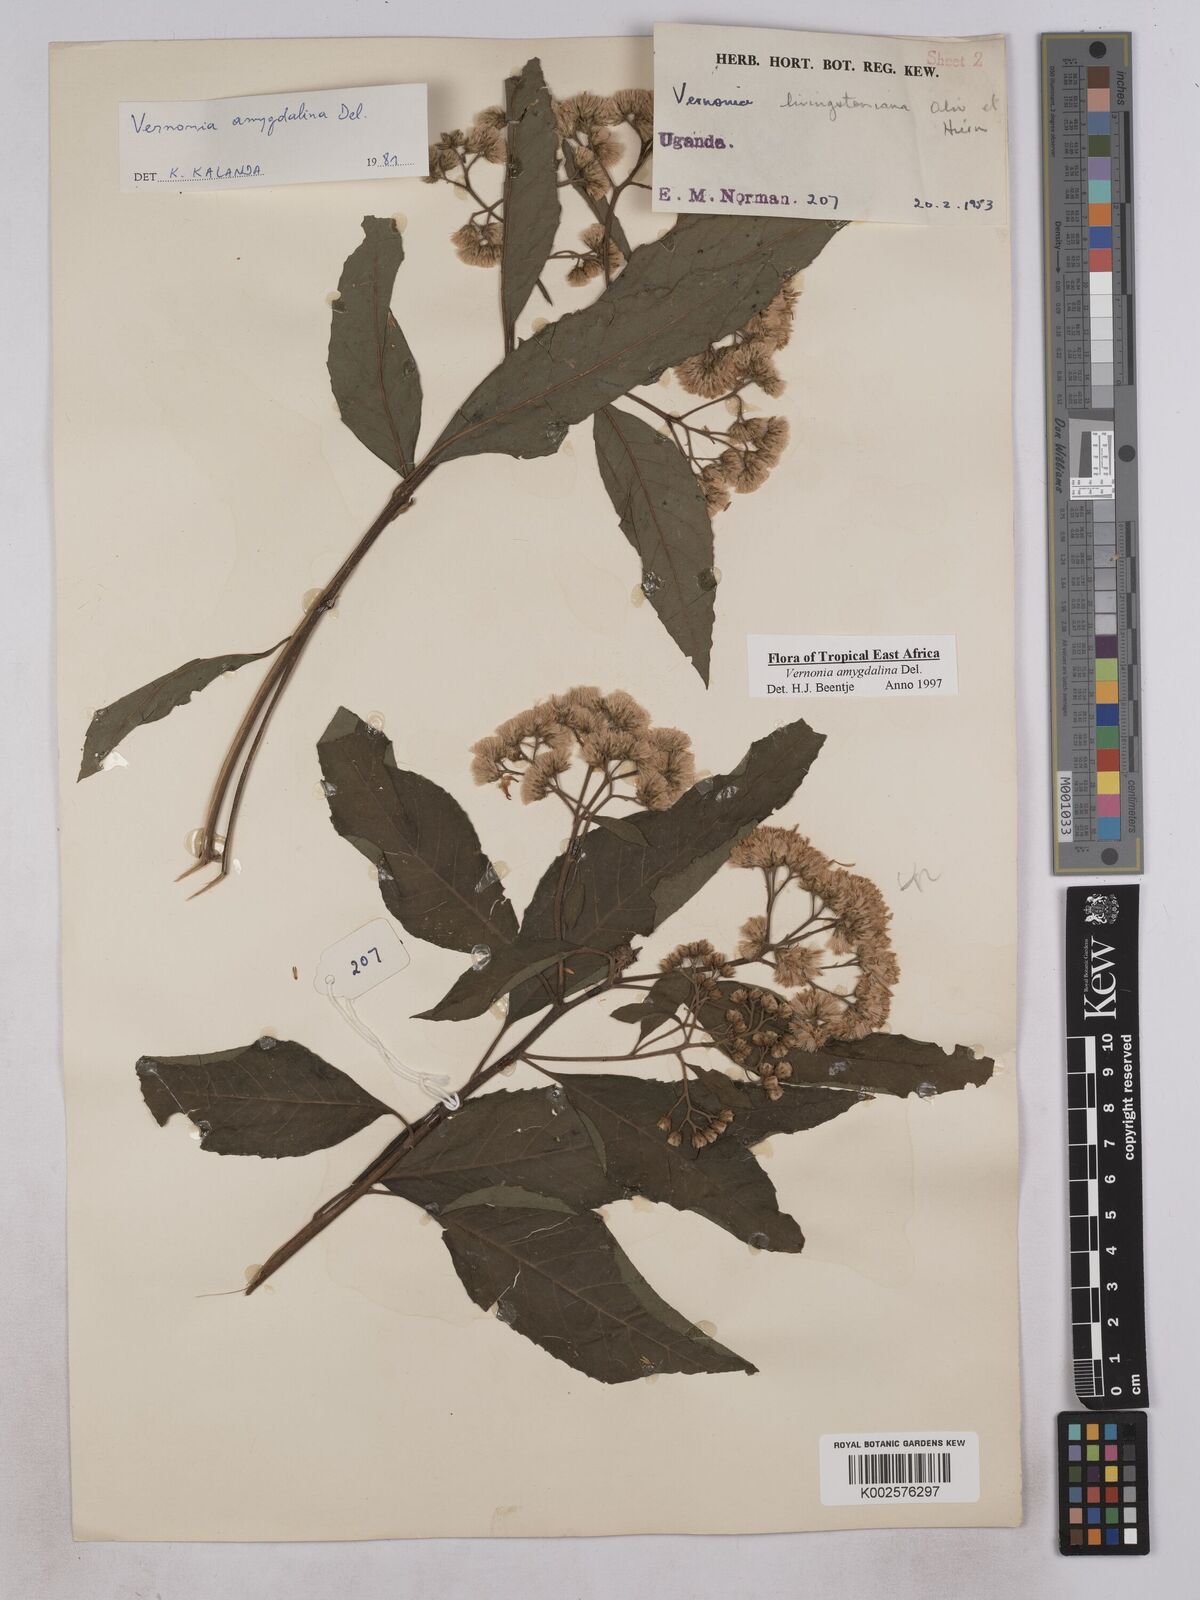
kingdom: Plantae
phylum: Tracheophyta
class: Magnoliopsida
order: Asterales
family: Asteraceae
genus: Gymnanthemum
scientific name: Gymnanthemum amygdalinum
